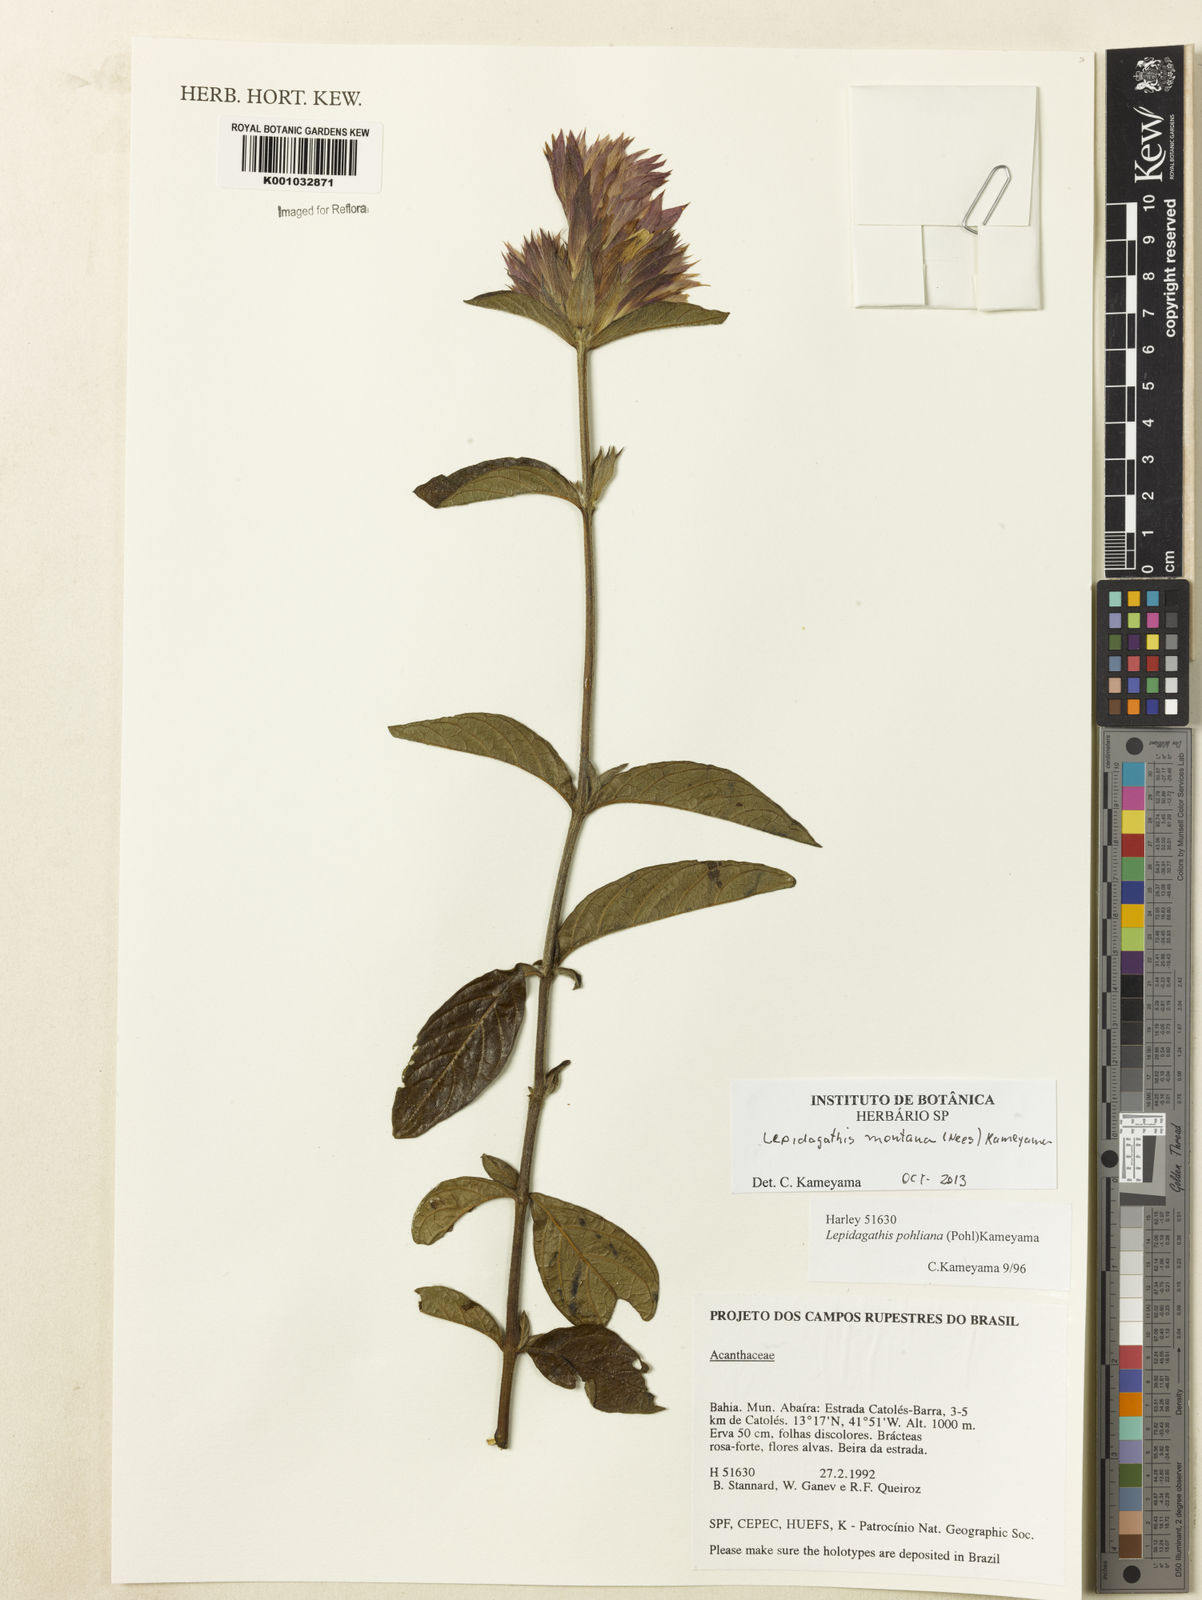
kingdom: Plantae
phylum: Tracheophyta
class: Magnoliopsida
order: Lamiales
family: Acanthaceae
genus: Lepidagathis
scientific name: Lepidagathis montana
